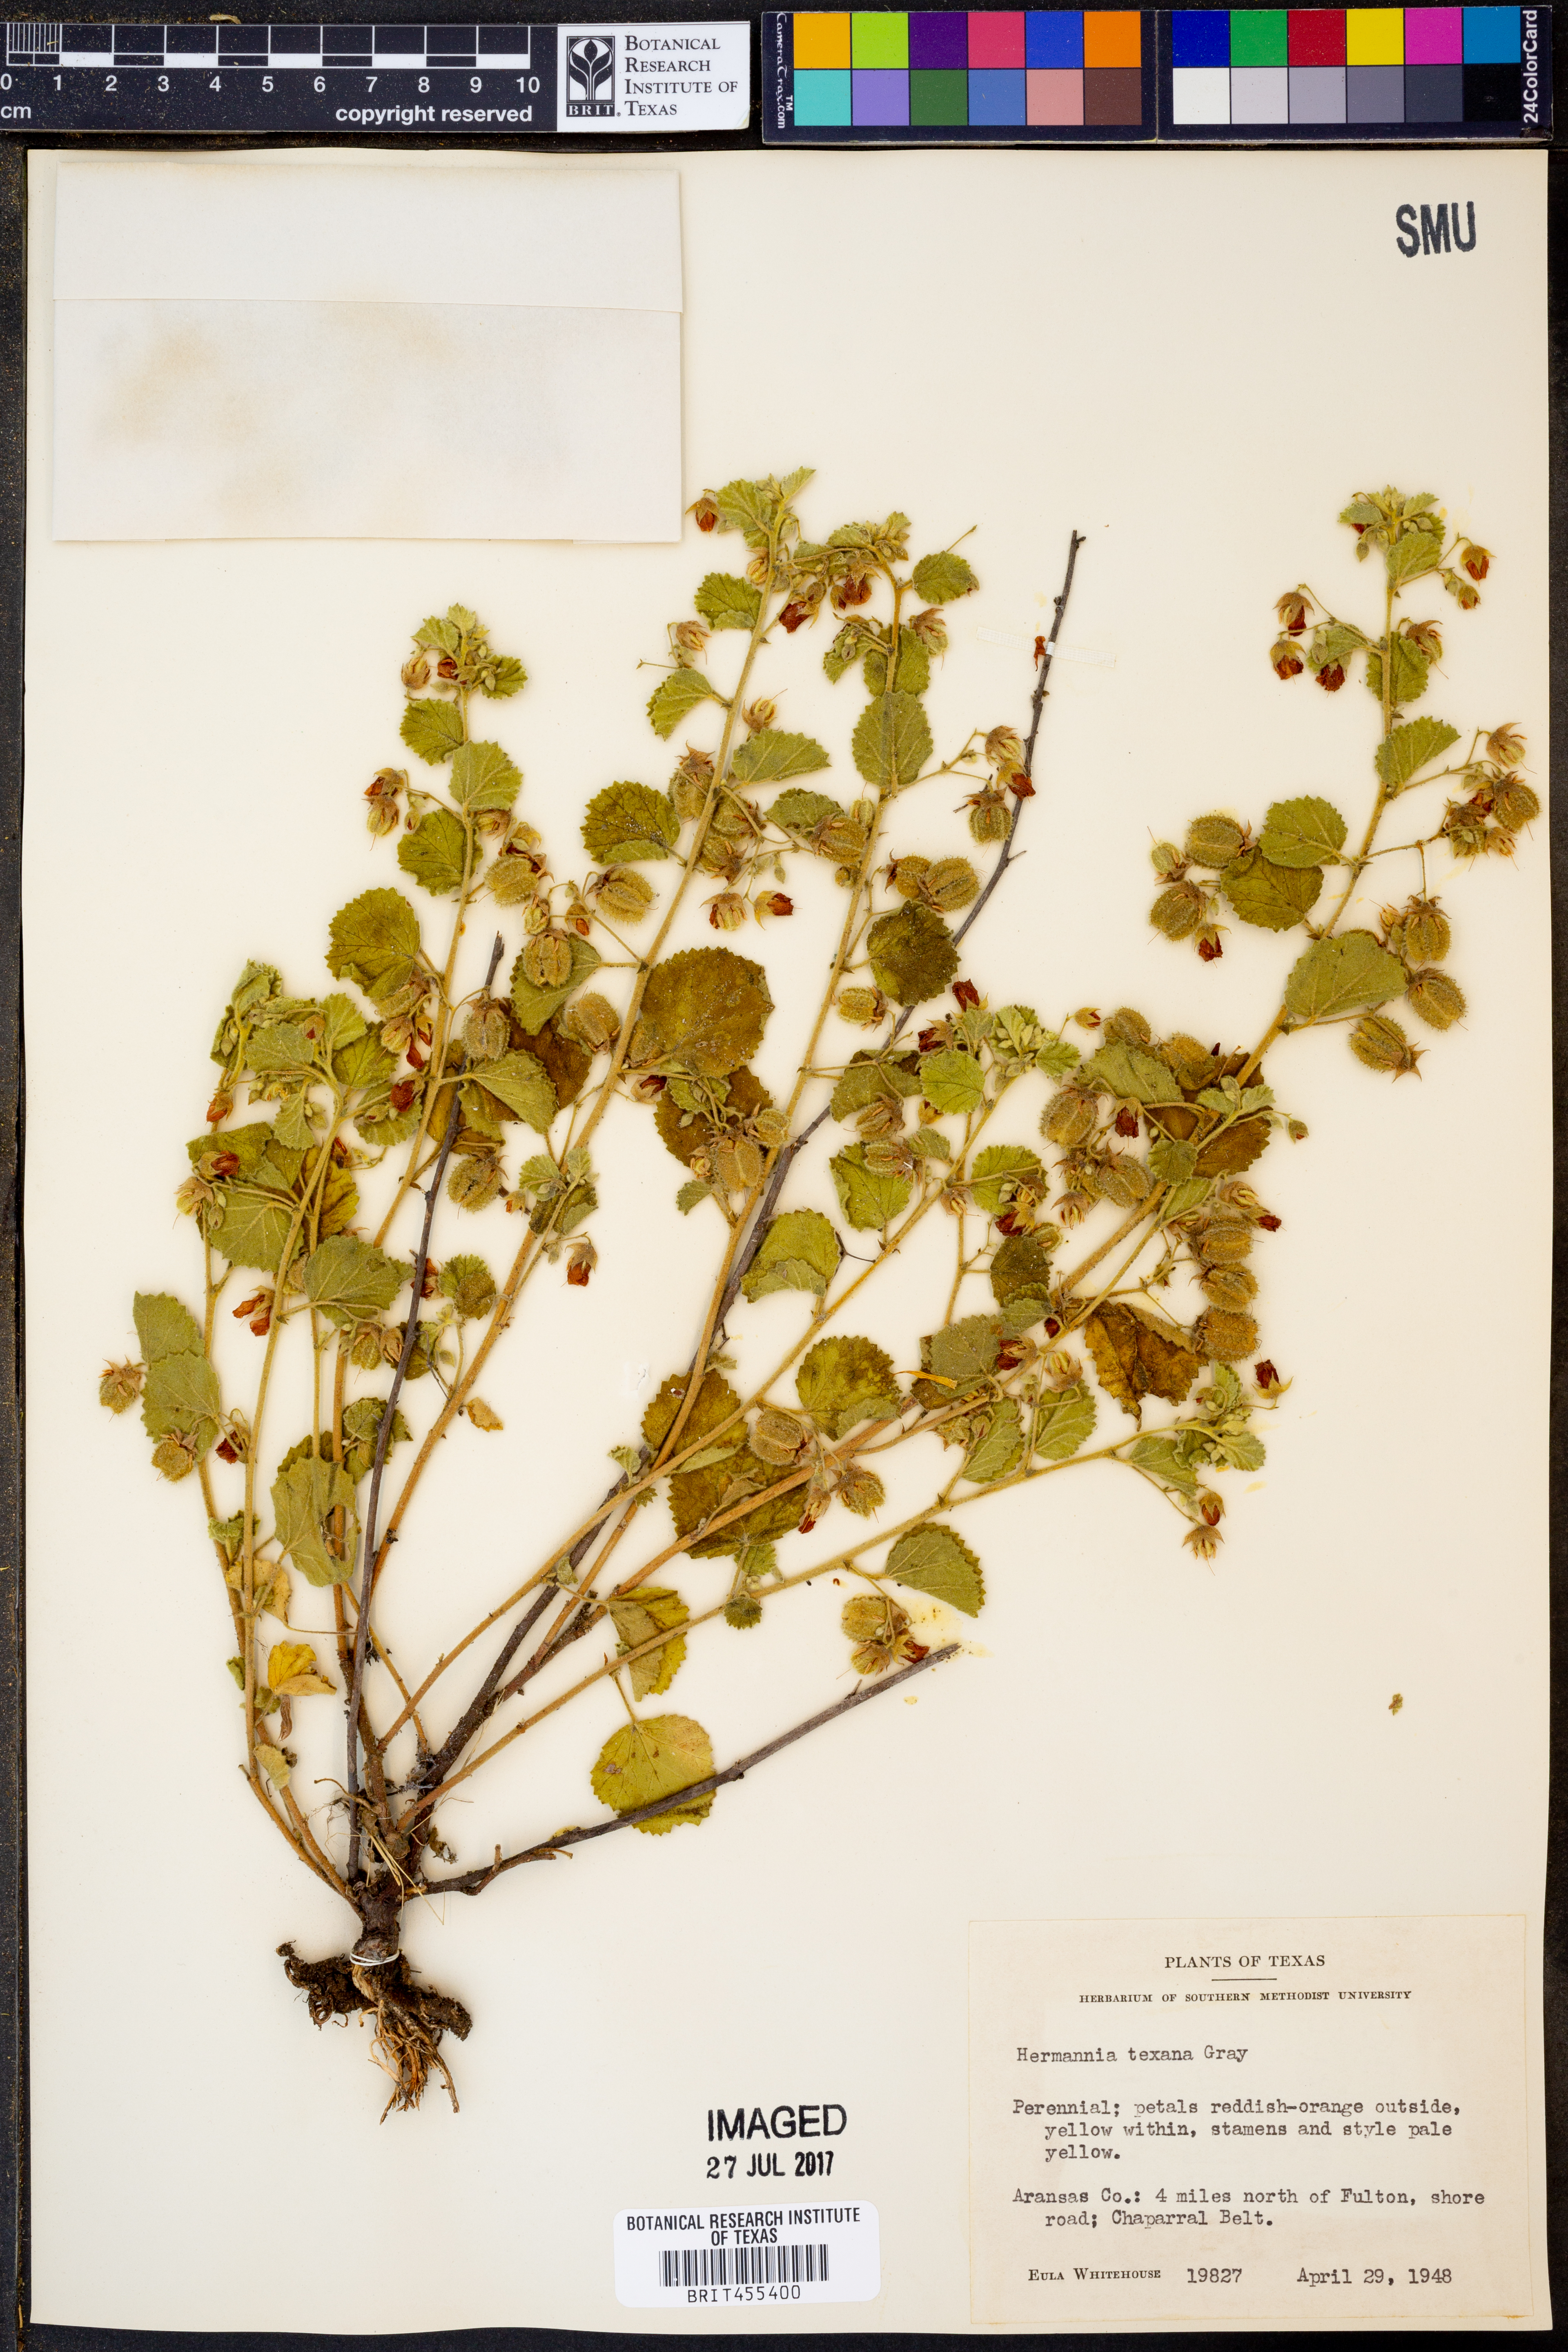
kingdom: Plantae
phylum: Tracheophyta
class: Magnoliopsida
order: Malvales
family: Malvaceae
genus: Hermannia
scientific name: Hermannia texana
